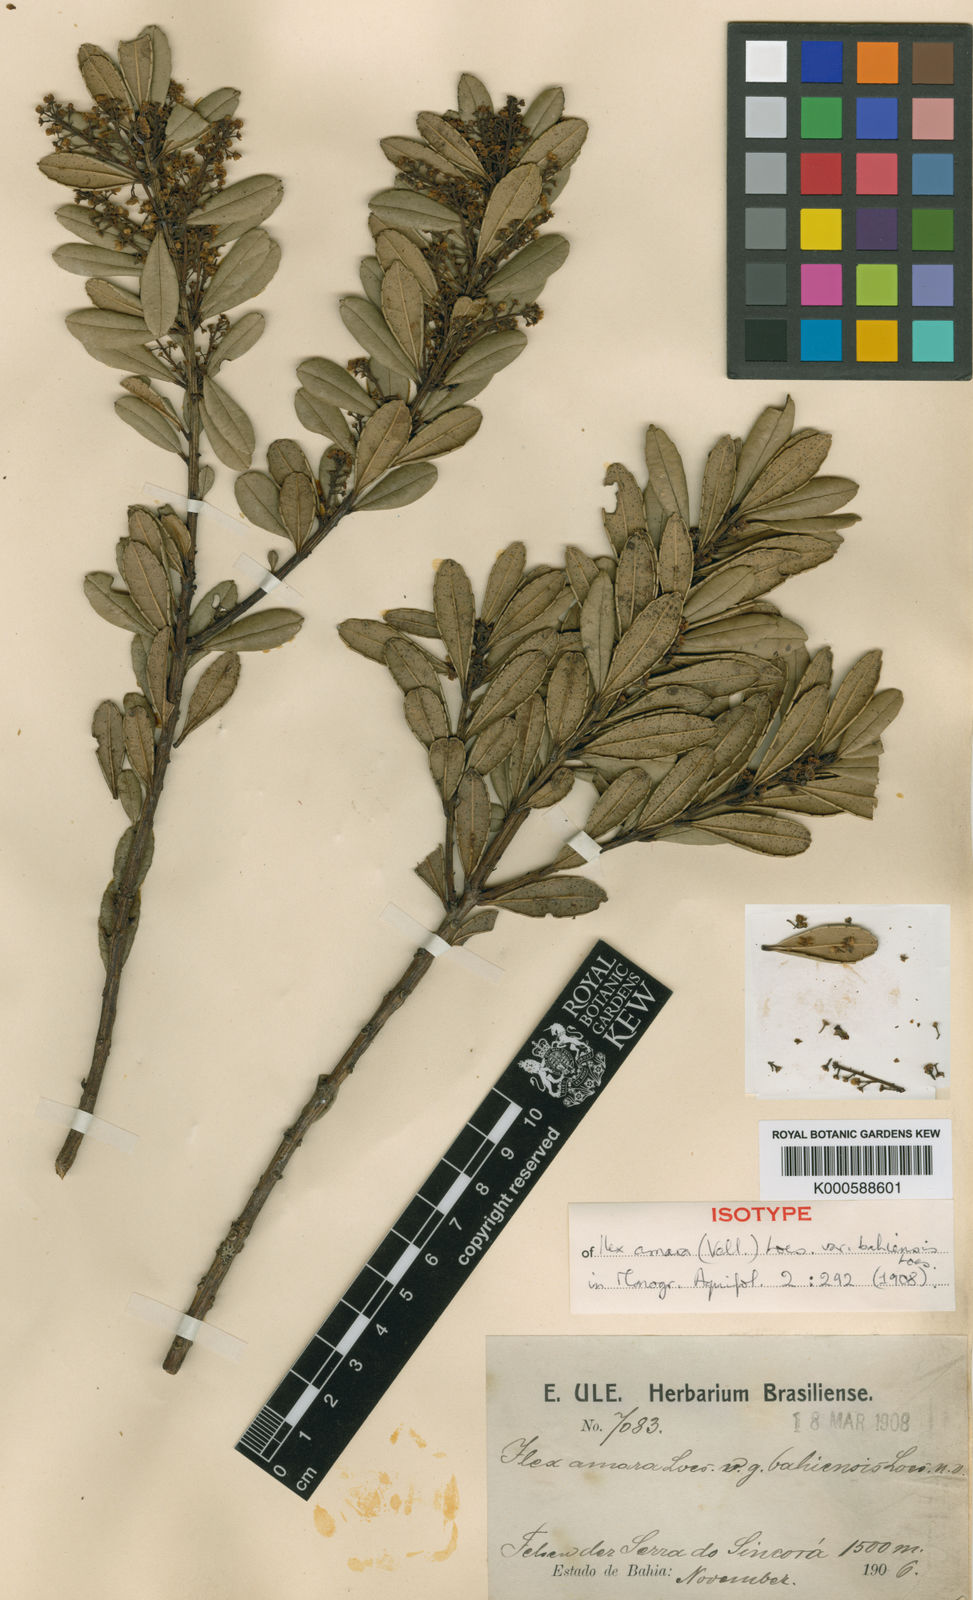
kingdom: Plantae
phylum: Tracheophyta
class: Magnoliopsida
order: Aquifoliales
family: Aquifoliaceae
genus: Ilex
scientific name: Ilex dumosa
